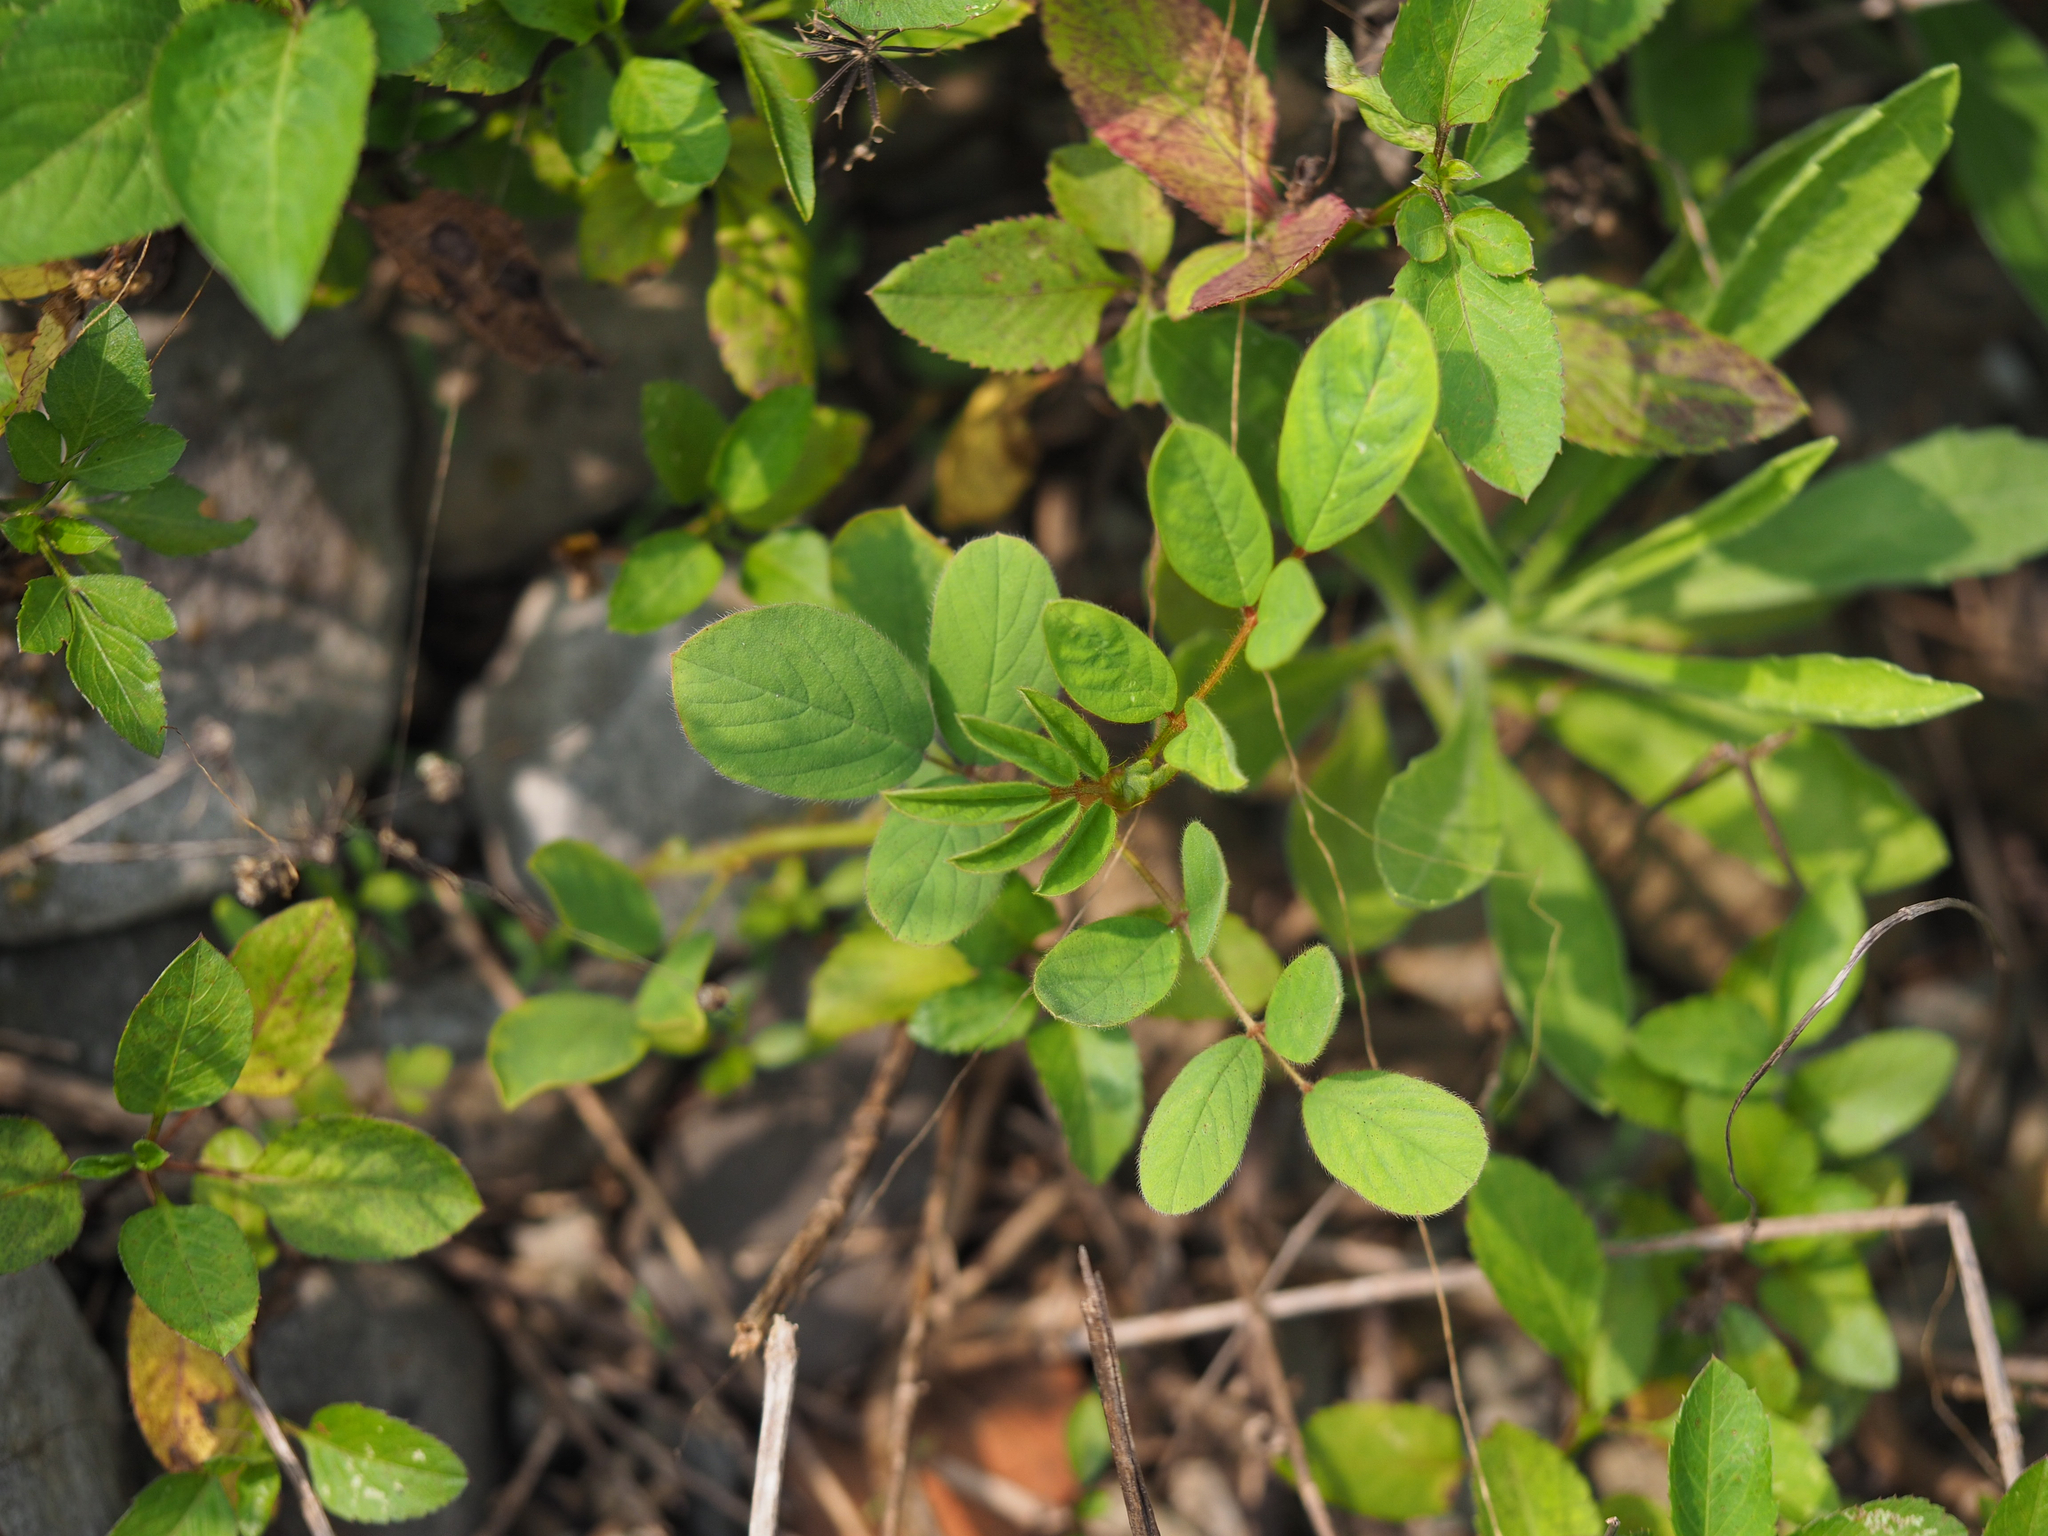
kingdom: Plantae
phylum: Tracheophyta
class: Magnoliopsida
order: Fabales
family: Fabaceae
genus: Indigofera
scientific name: Indigofera hirsuta
